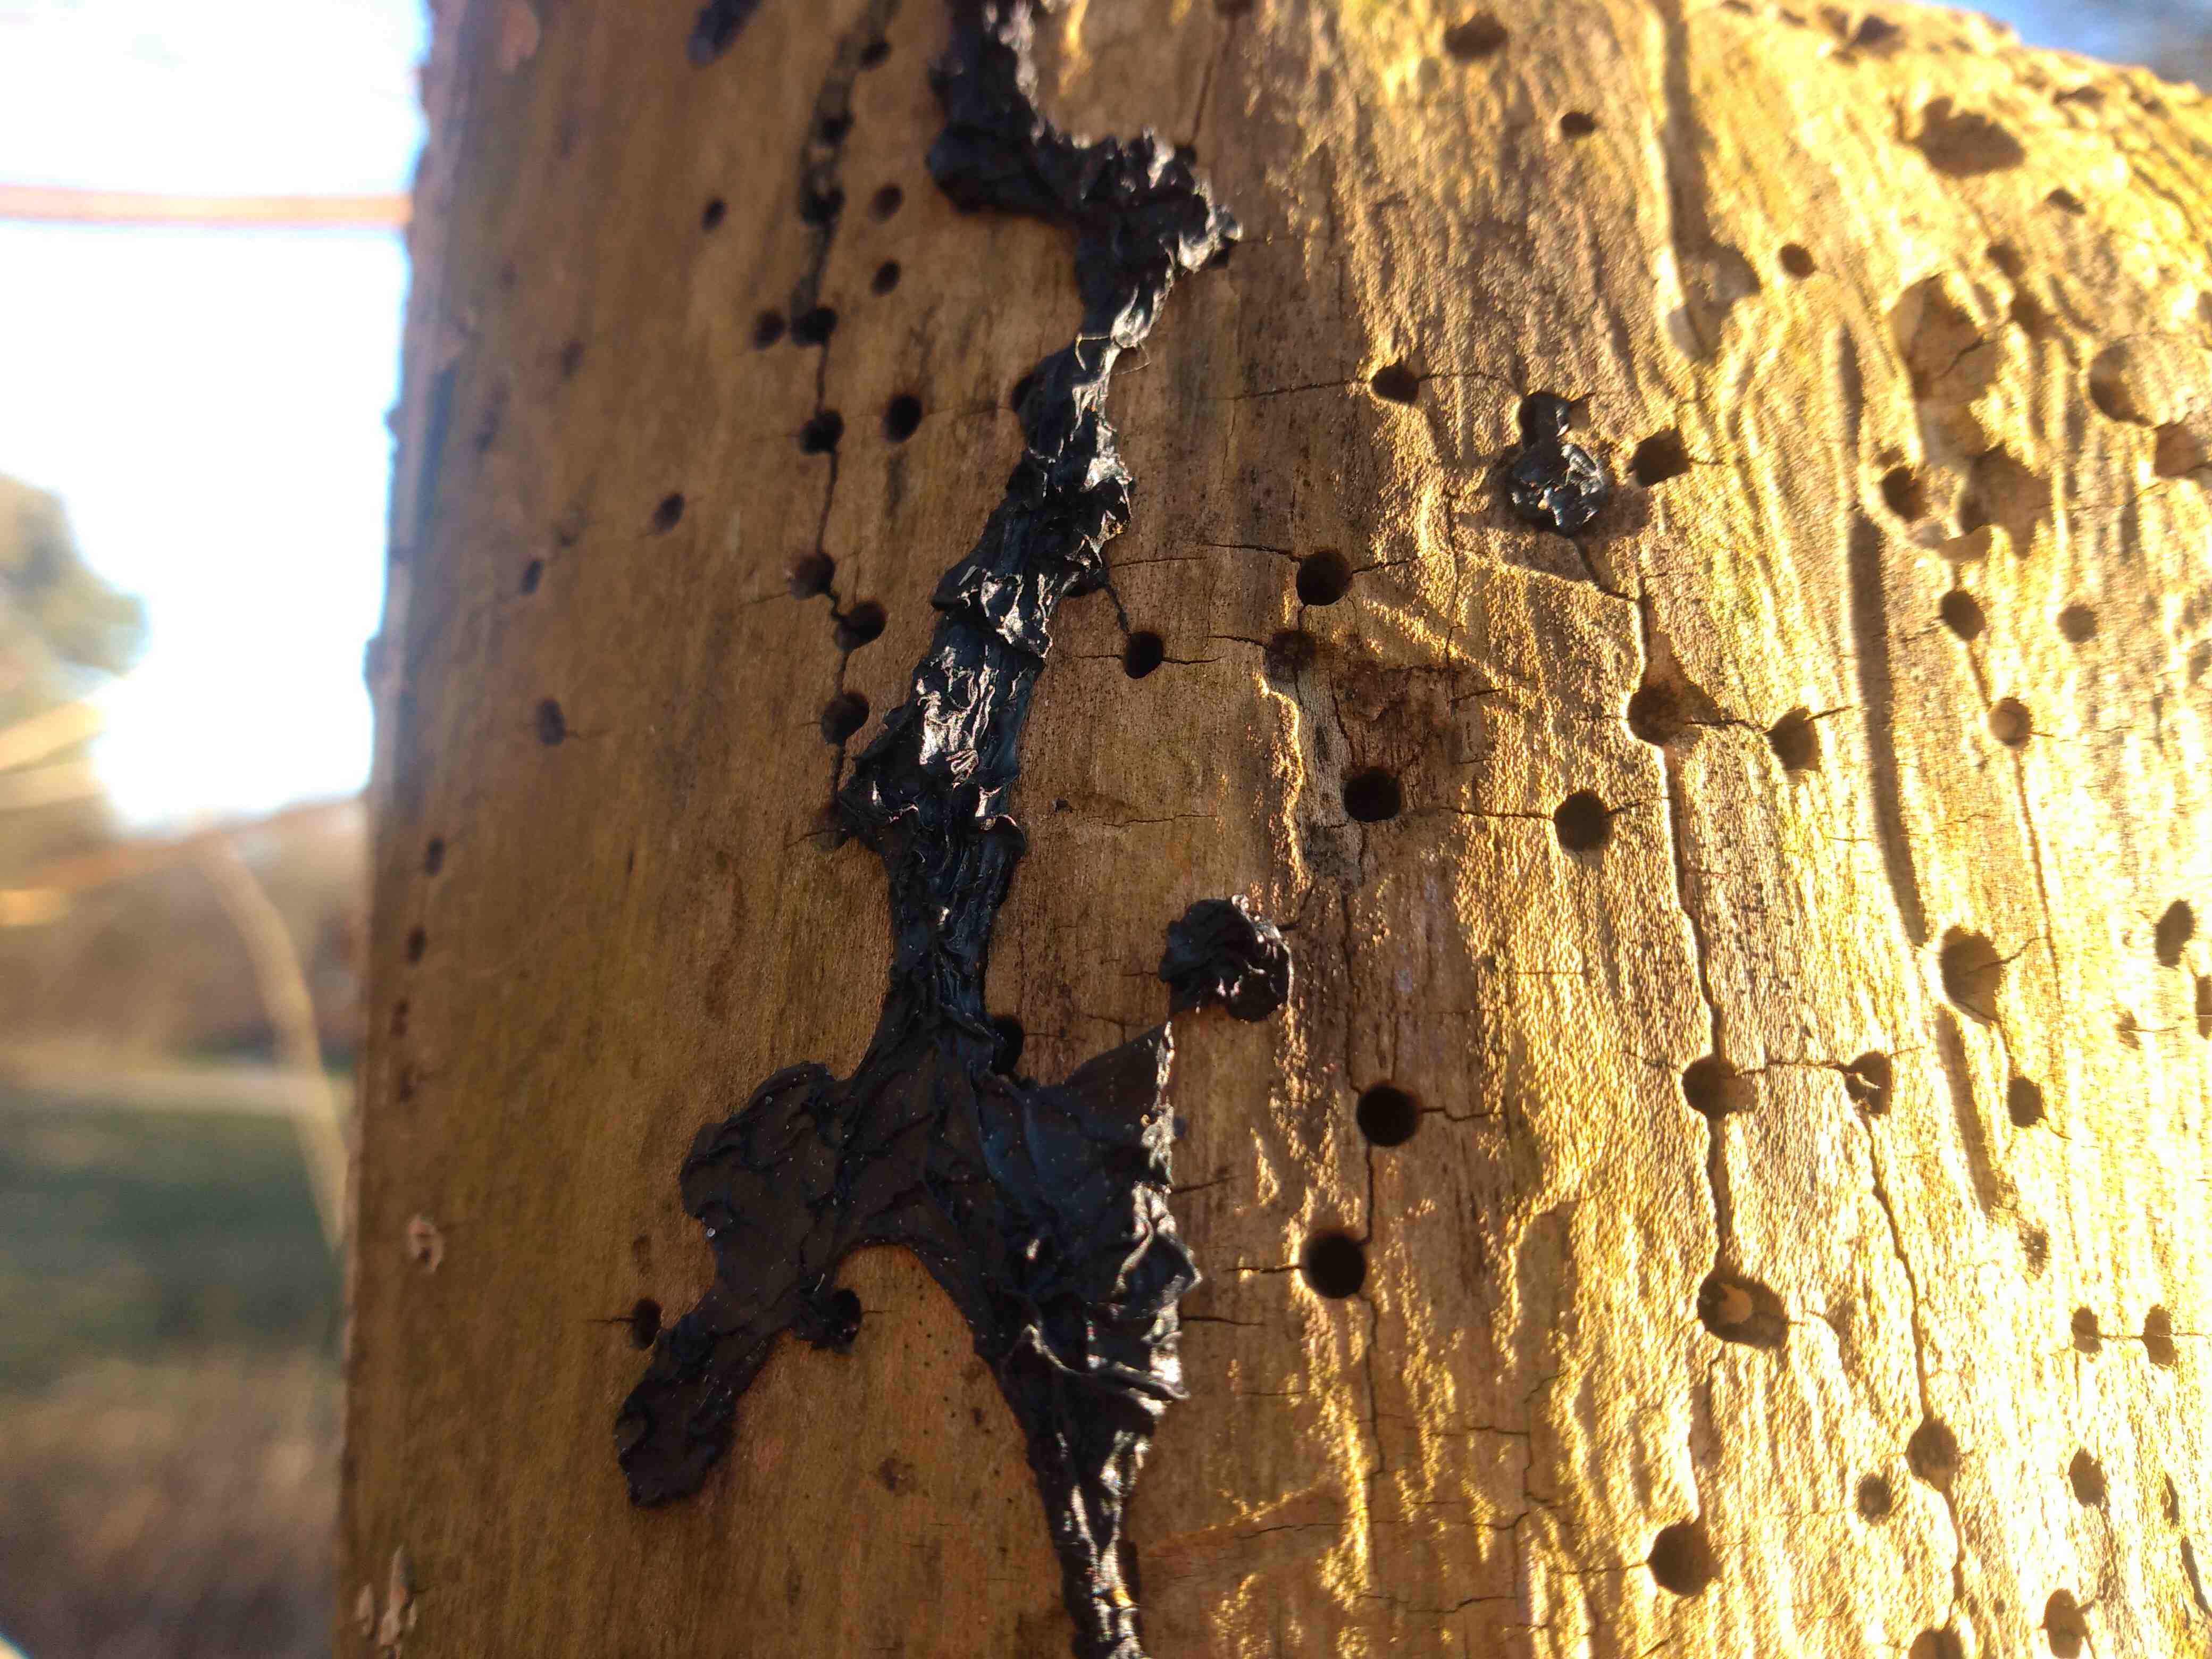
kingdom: Fungi
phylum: Basidiomycota
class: Agaricomycetes
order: Auriculariales
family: Auriculariaceae
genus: Exidia
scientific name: Exidia nigricans
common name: almindelig bævretop
